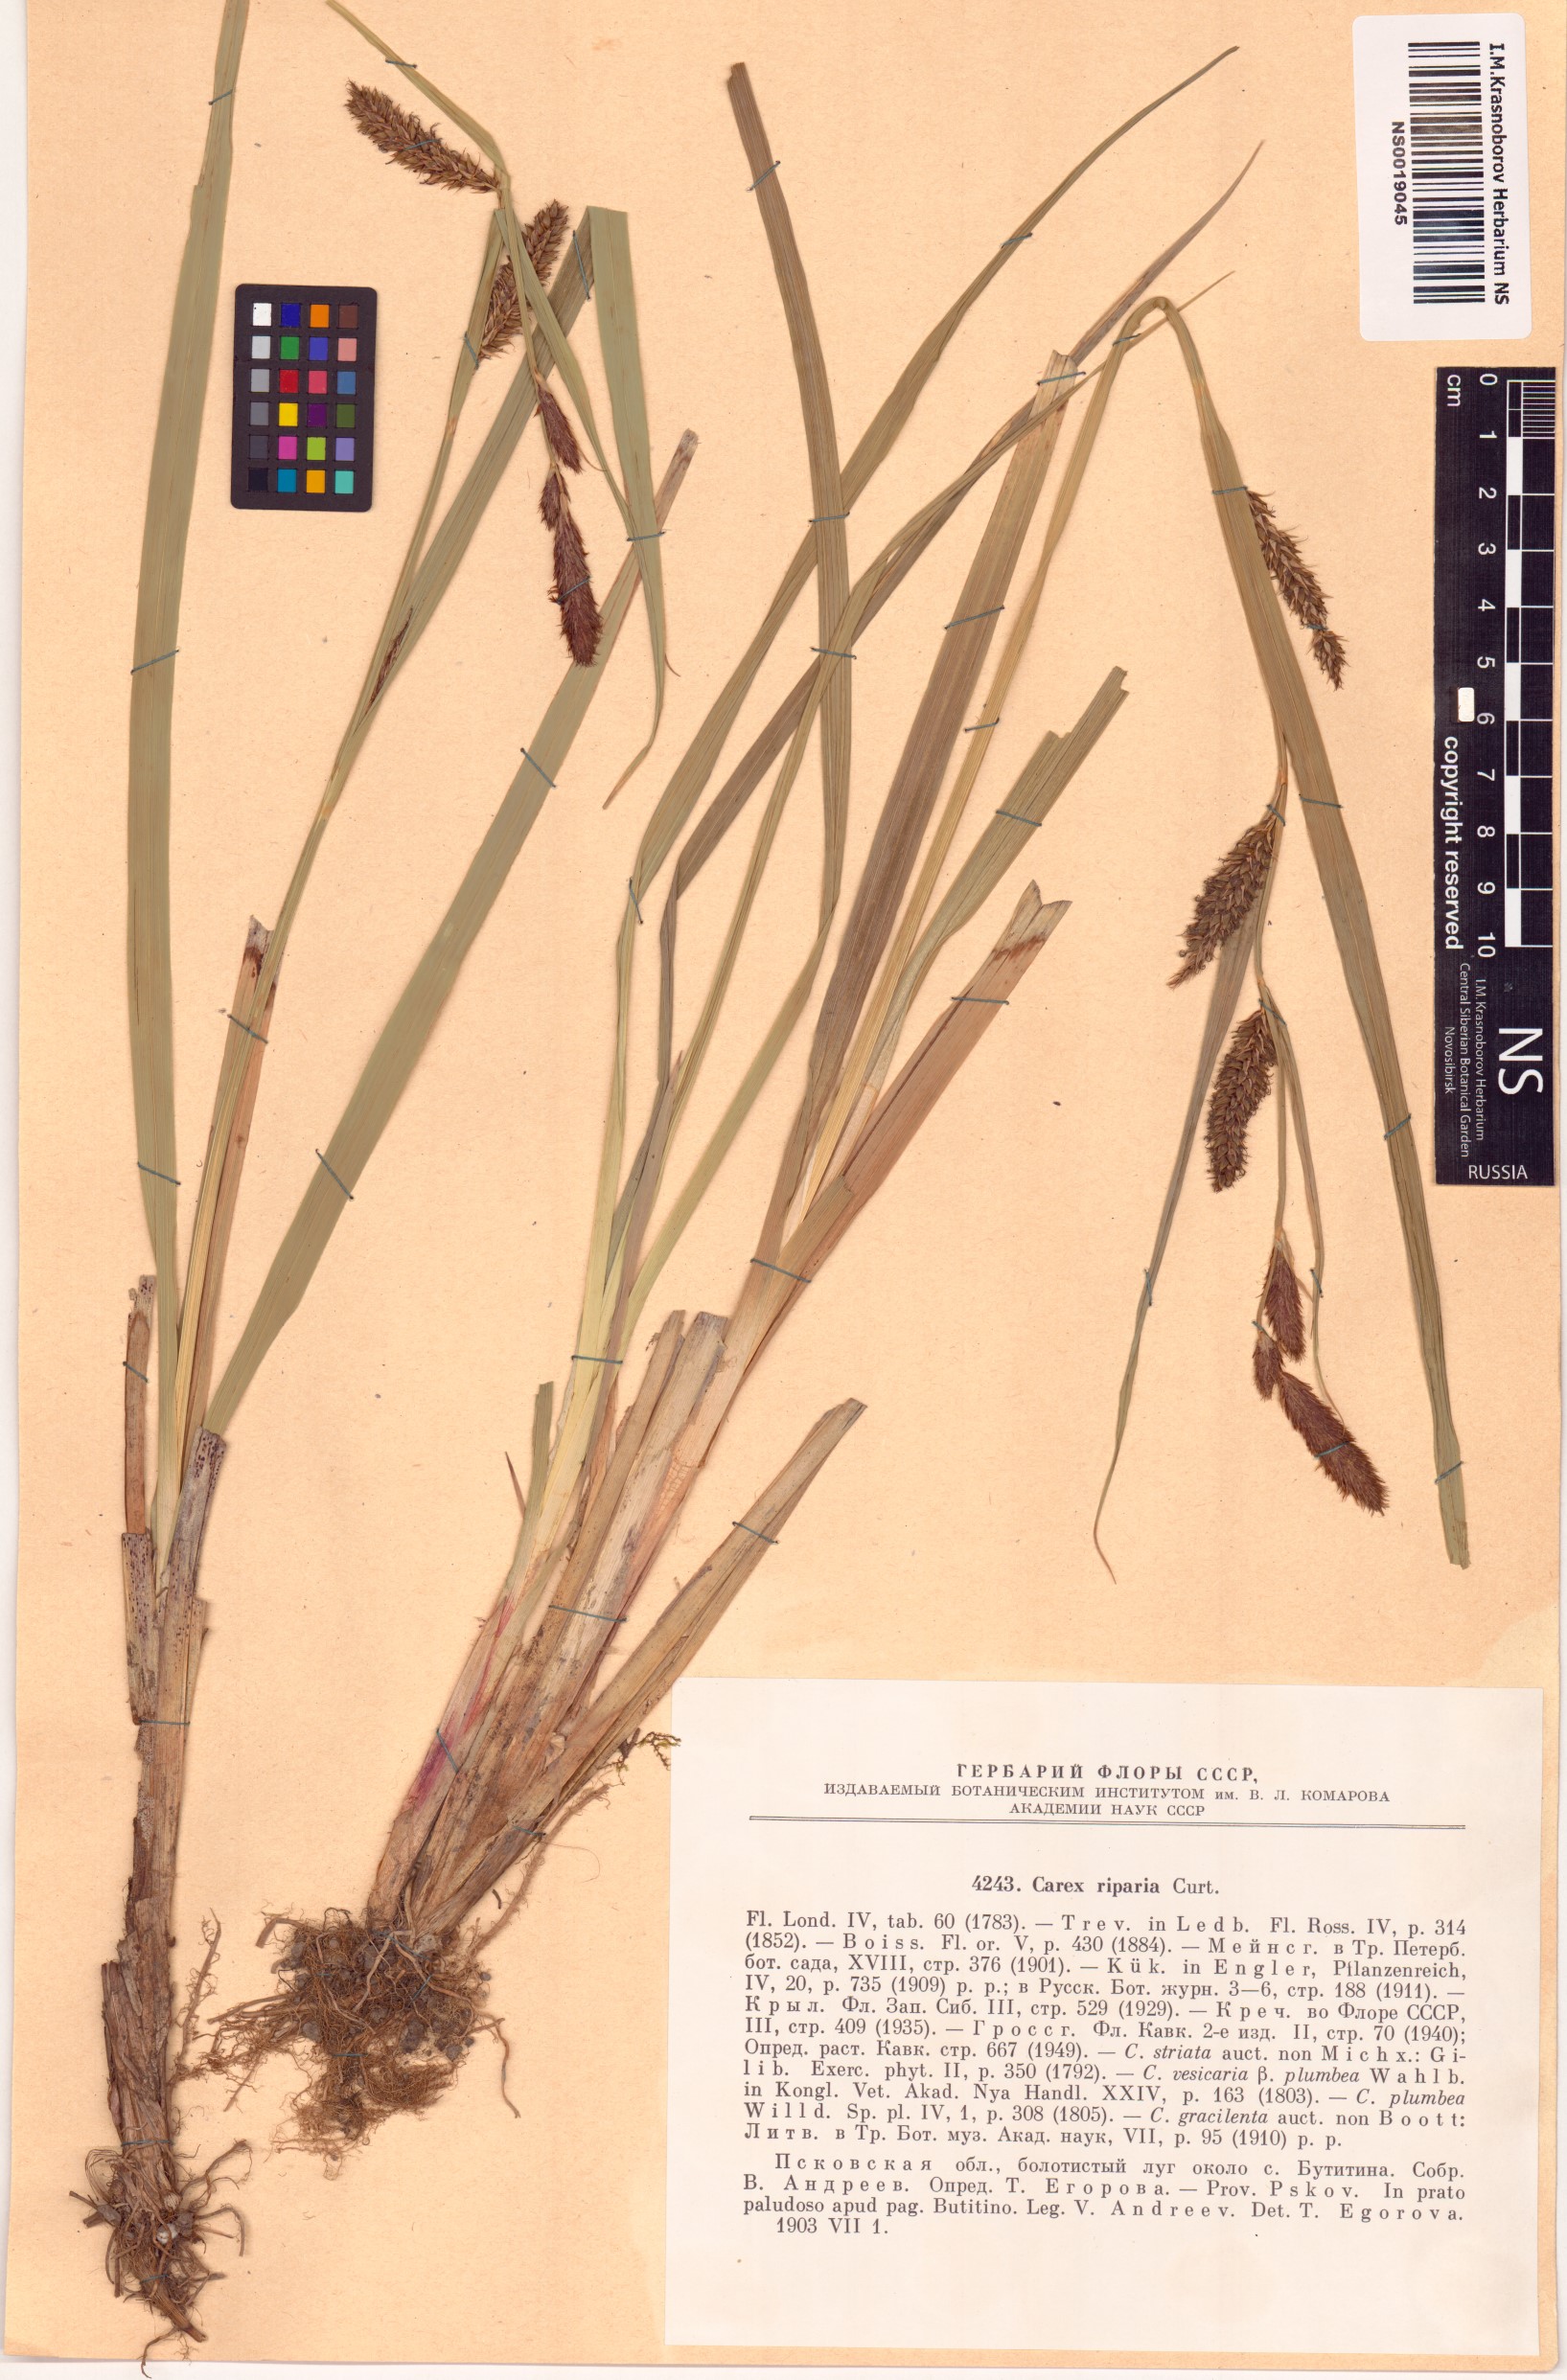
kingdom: Plantae
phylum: Tracheophyta
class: Liliopsida
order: Poales
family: Cyperaceae
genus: Carex
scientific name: Carex riparia
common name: Greater pond-sedge
